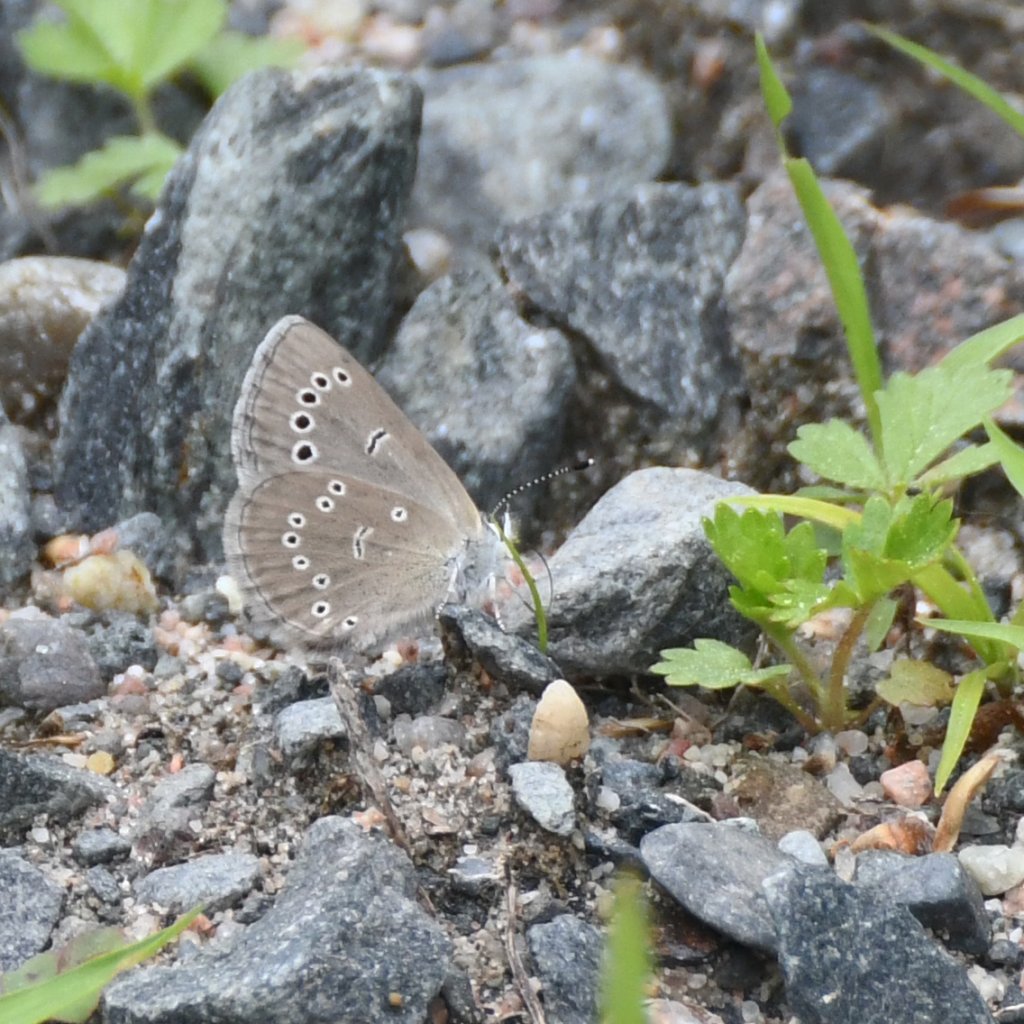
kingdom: Animalia
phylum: Arthropoda
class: Insecta
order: Lepidoptera
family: Lycaenidae
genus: Glaucopsyche
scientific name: Glaucopsyche lygdamus
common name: Silvery Blue
